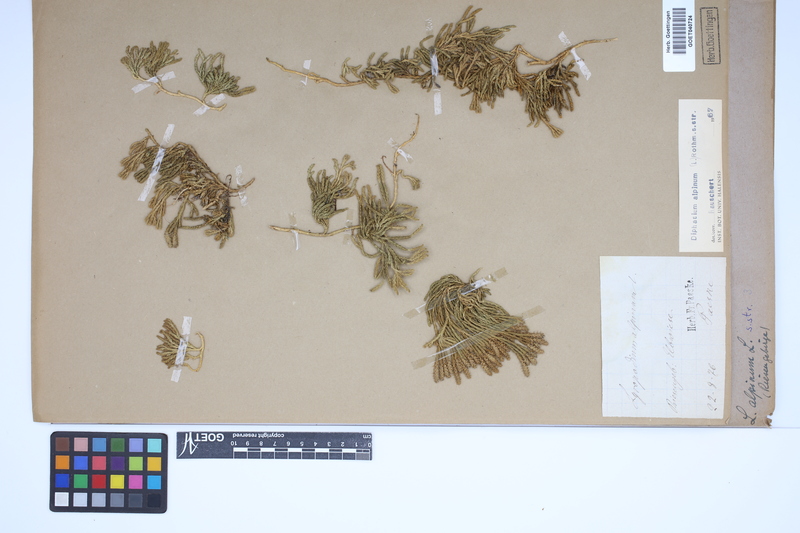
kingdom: Plantae
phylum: Tracheophyta
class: Lycopodiopsida
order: Lycopodiales
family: Lycopodiaceae
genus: Diphasiastrum
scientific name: Diphasiastrum alpinum
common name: Alpine clubmoss
